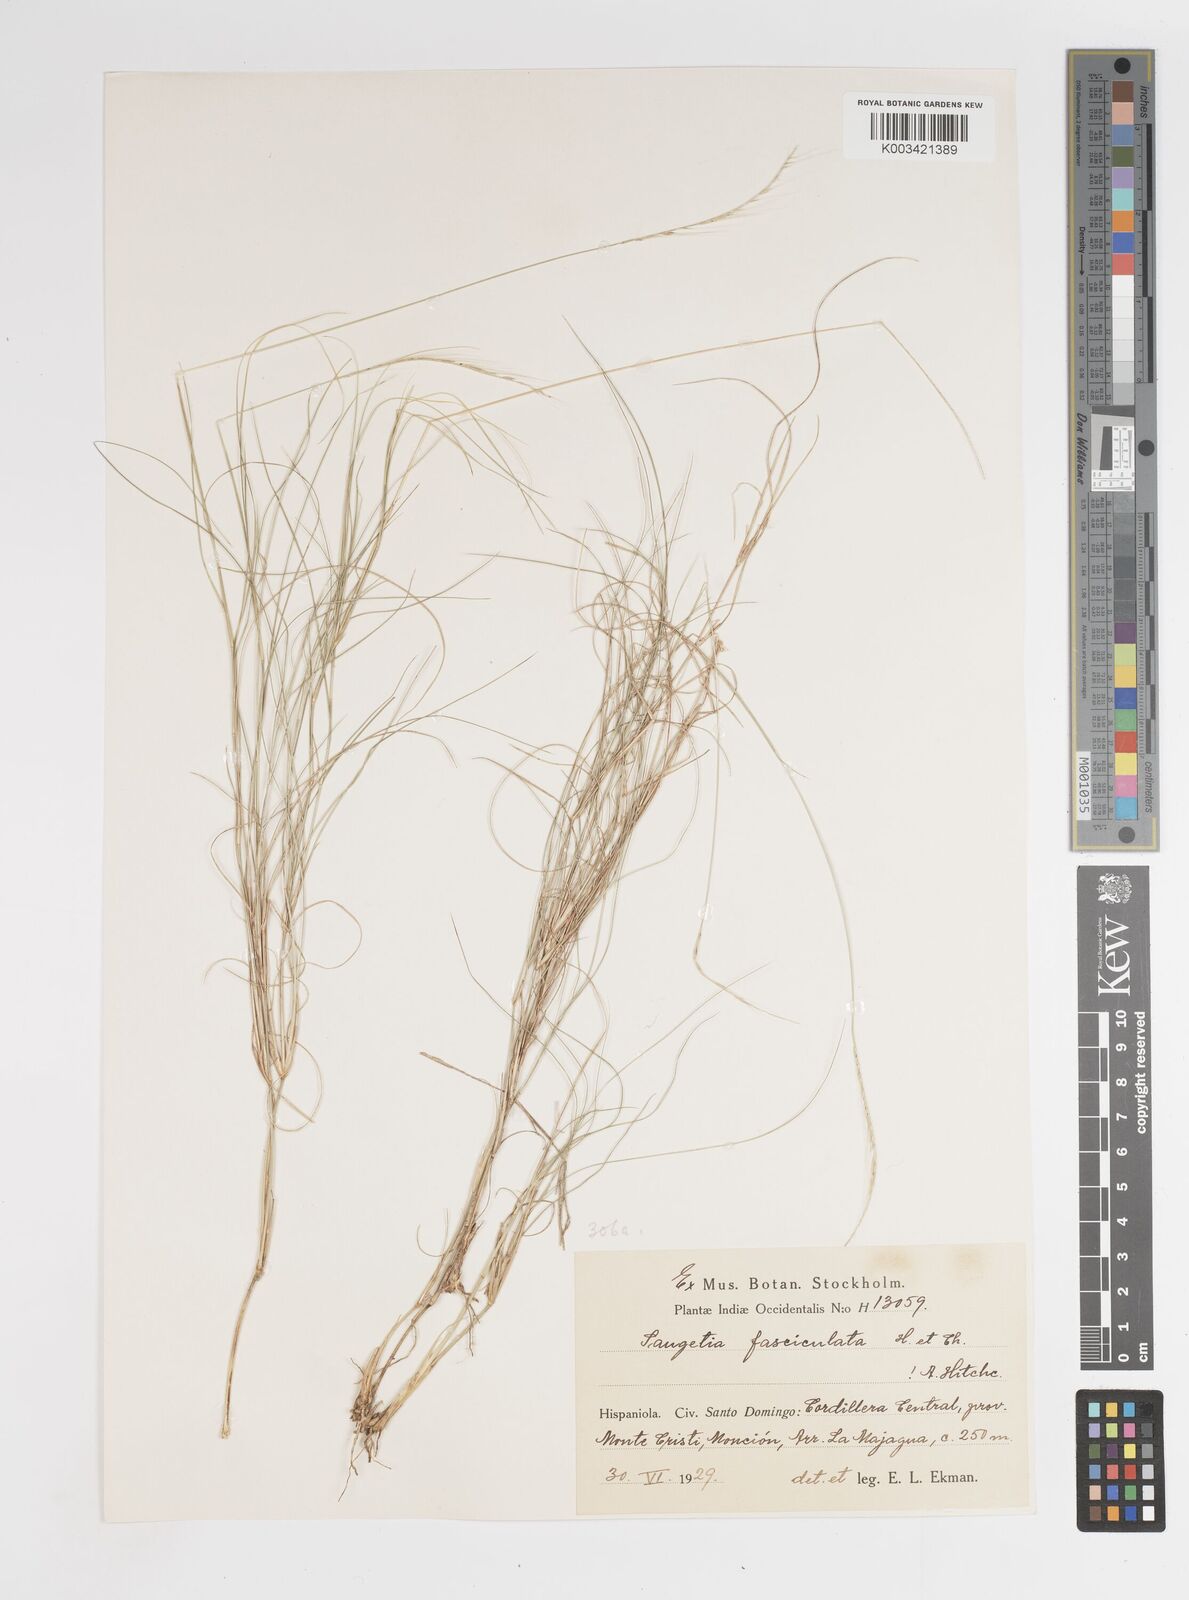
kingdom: Plantae
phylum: Tracheophyta
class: Liliopsida
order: Poales
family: Poaceae
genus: Enteropogon
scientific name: Enteropogon
